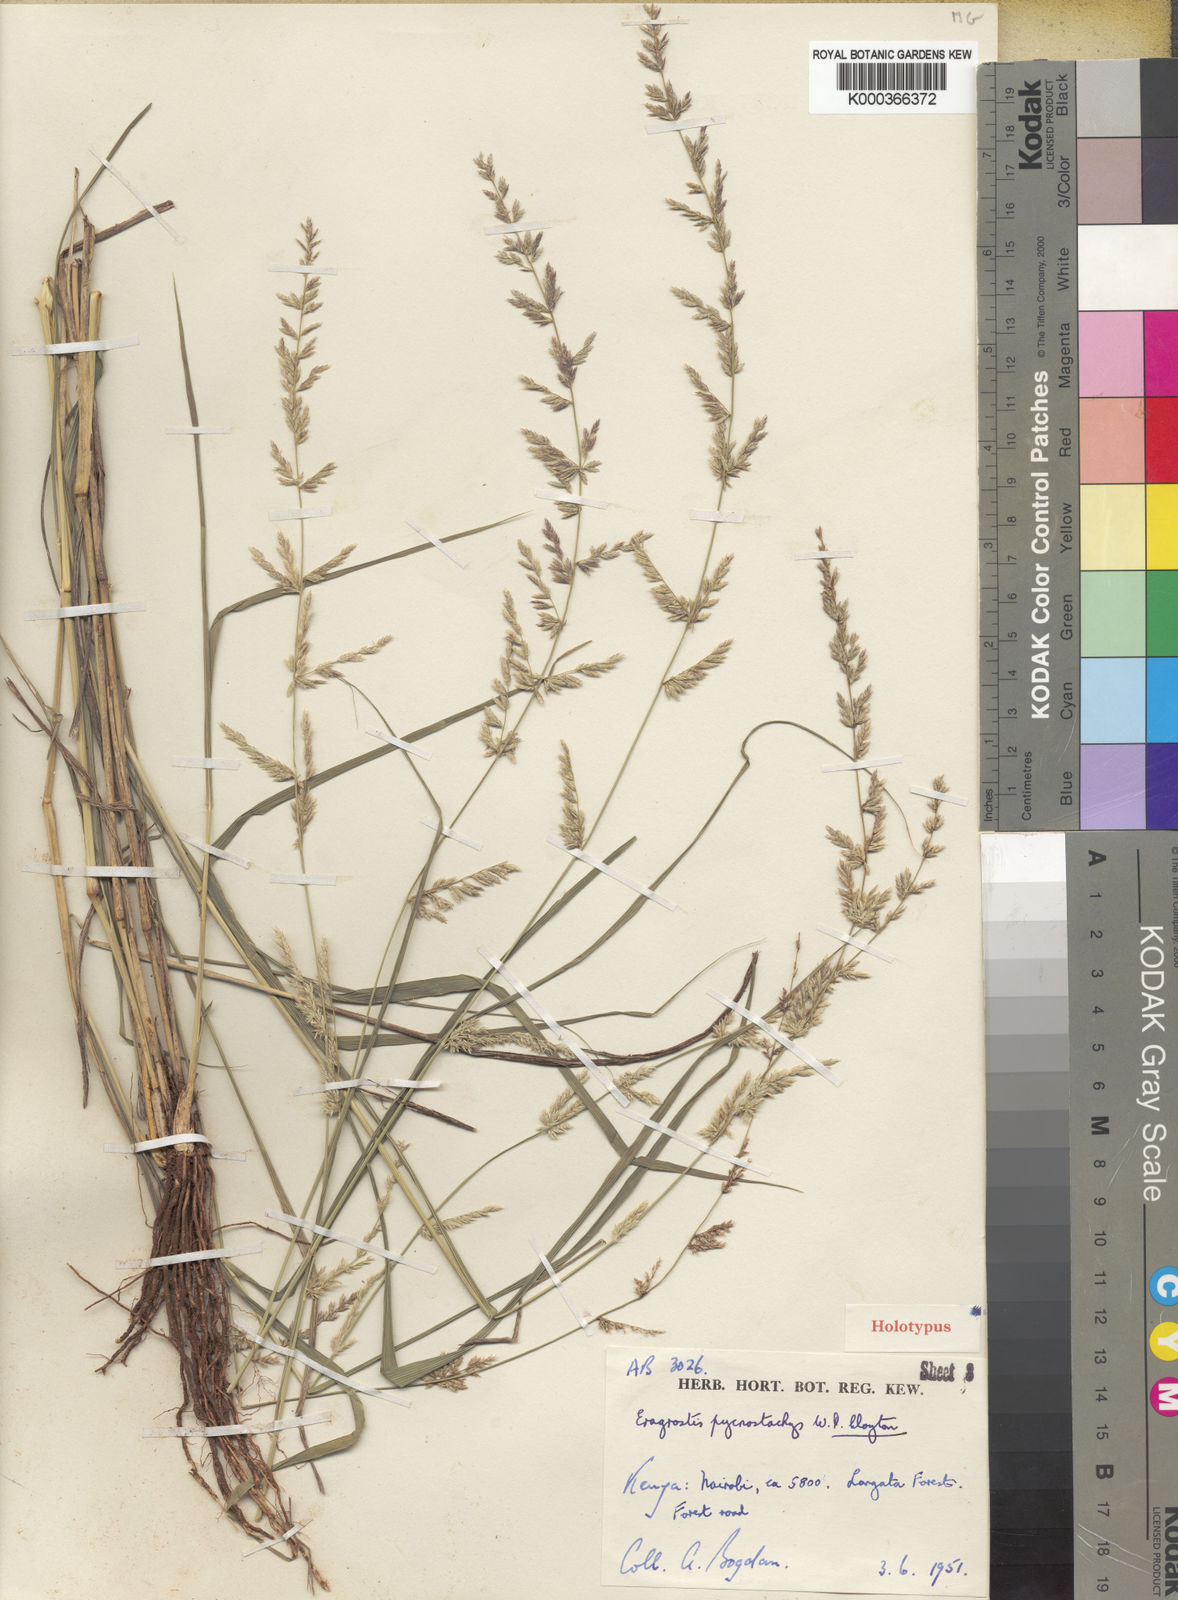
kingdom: Plantae
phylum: Tracheophyta
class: Liliopsida
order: Poales
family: Poaceae
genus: Eragrostis
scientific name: Eragrostis pycnostachys
